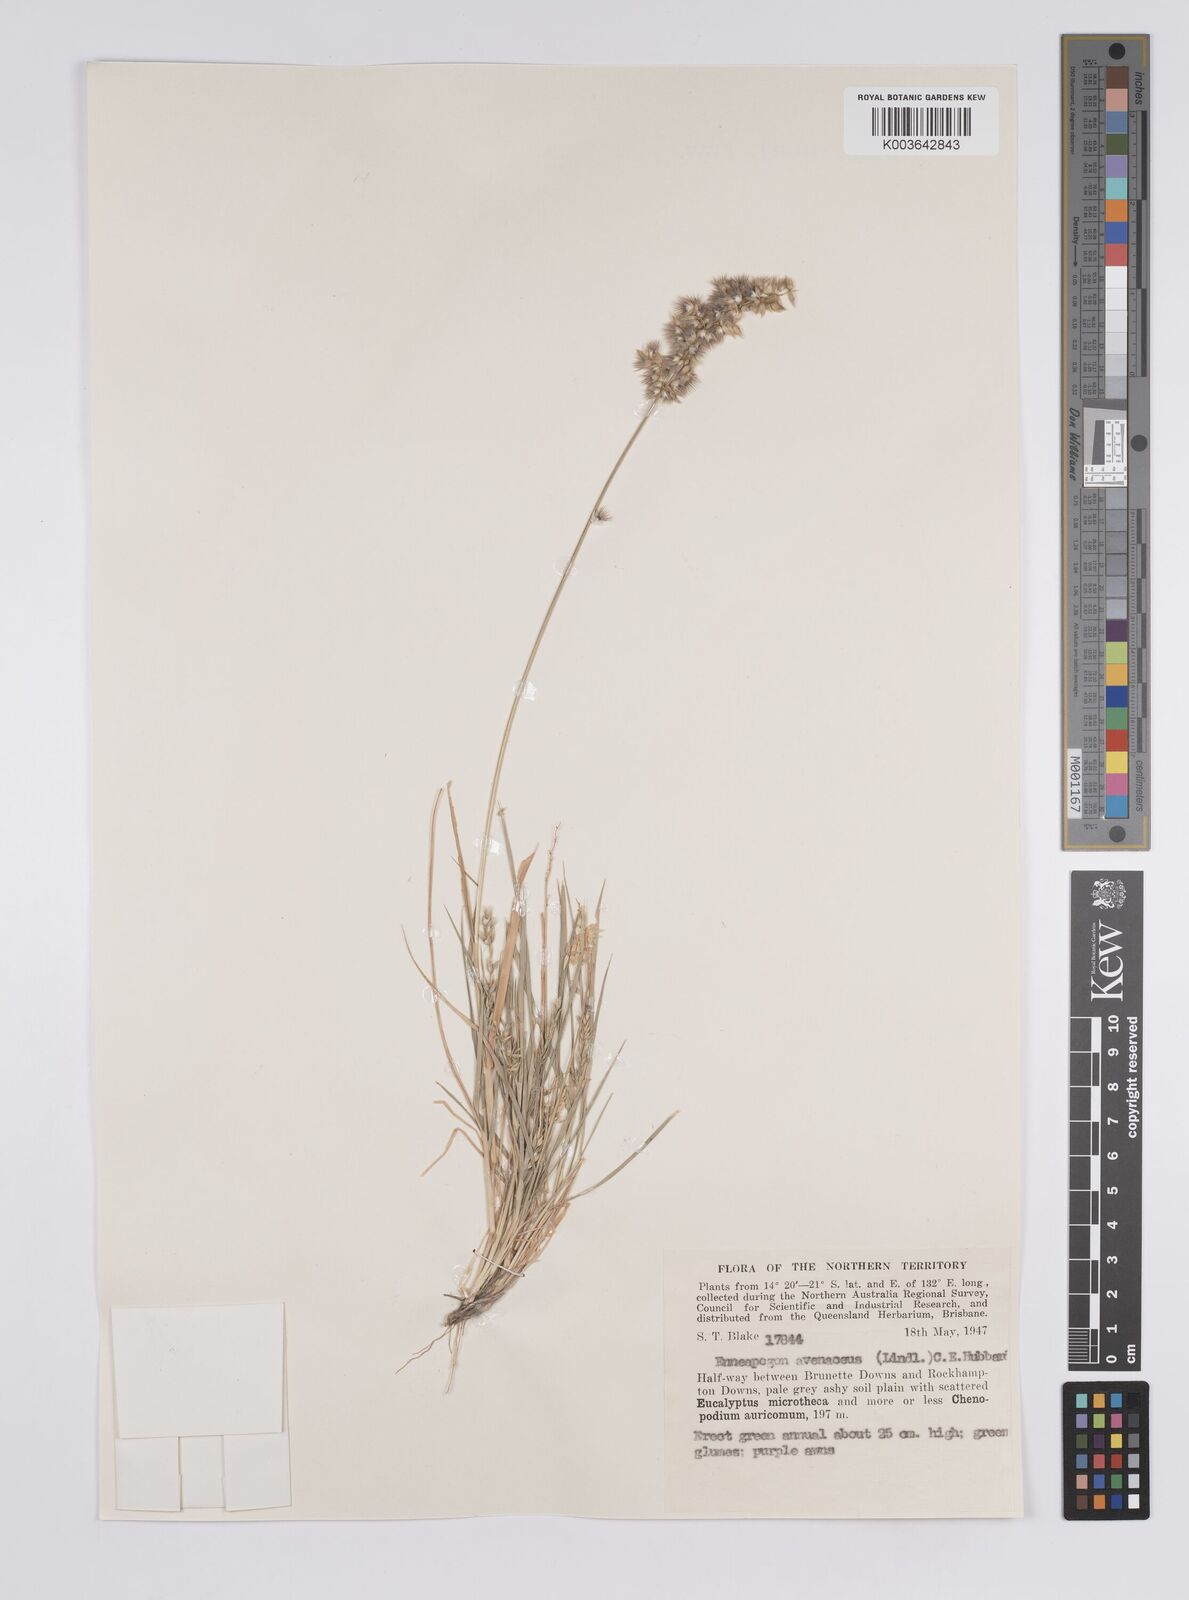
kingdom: Plantae
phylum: Tracheophyta
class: Liliopsida
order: Poales
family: Poaceae
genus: Enneapogon
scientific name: Enneapogon avenaceus
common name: Hairy oat grass
